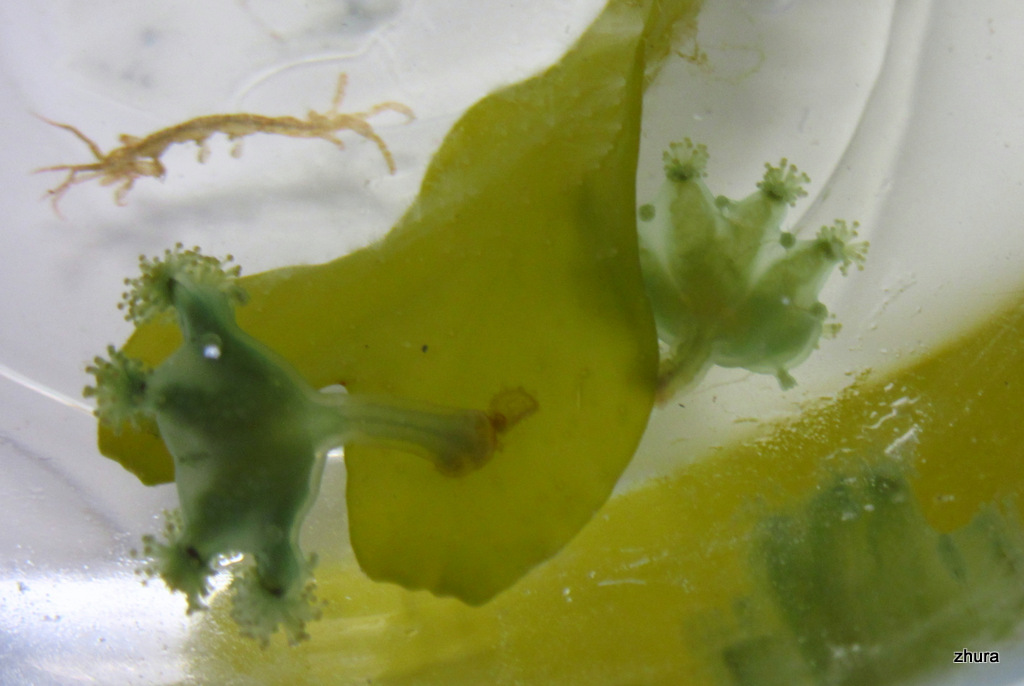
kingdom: Animalia
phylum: Cnidaria
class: Staurozoa
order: Stauromedusae
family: Haliclystidae
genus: Haliclystus
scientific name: Haliclystus auricula
